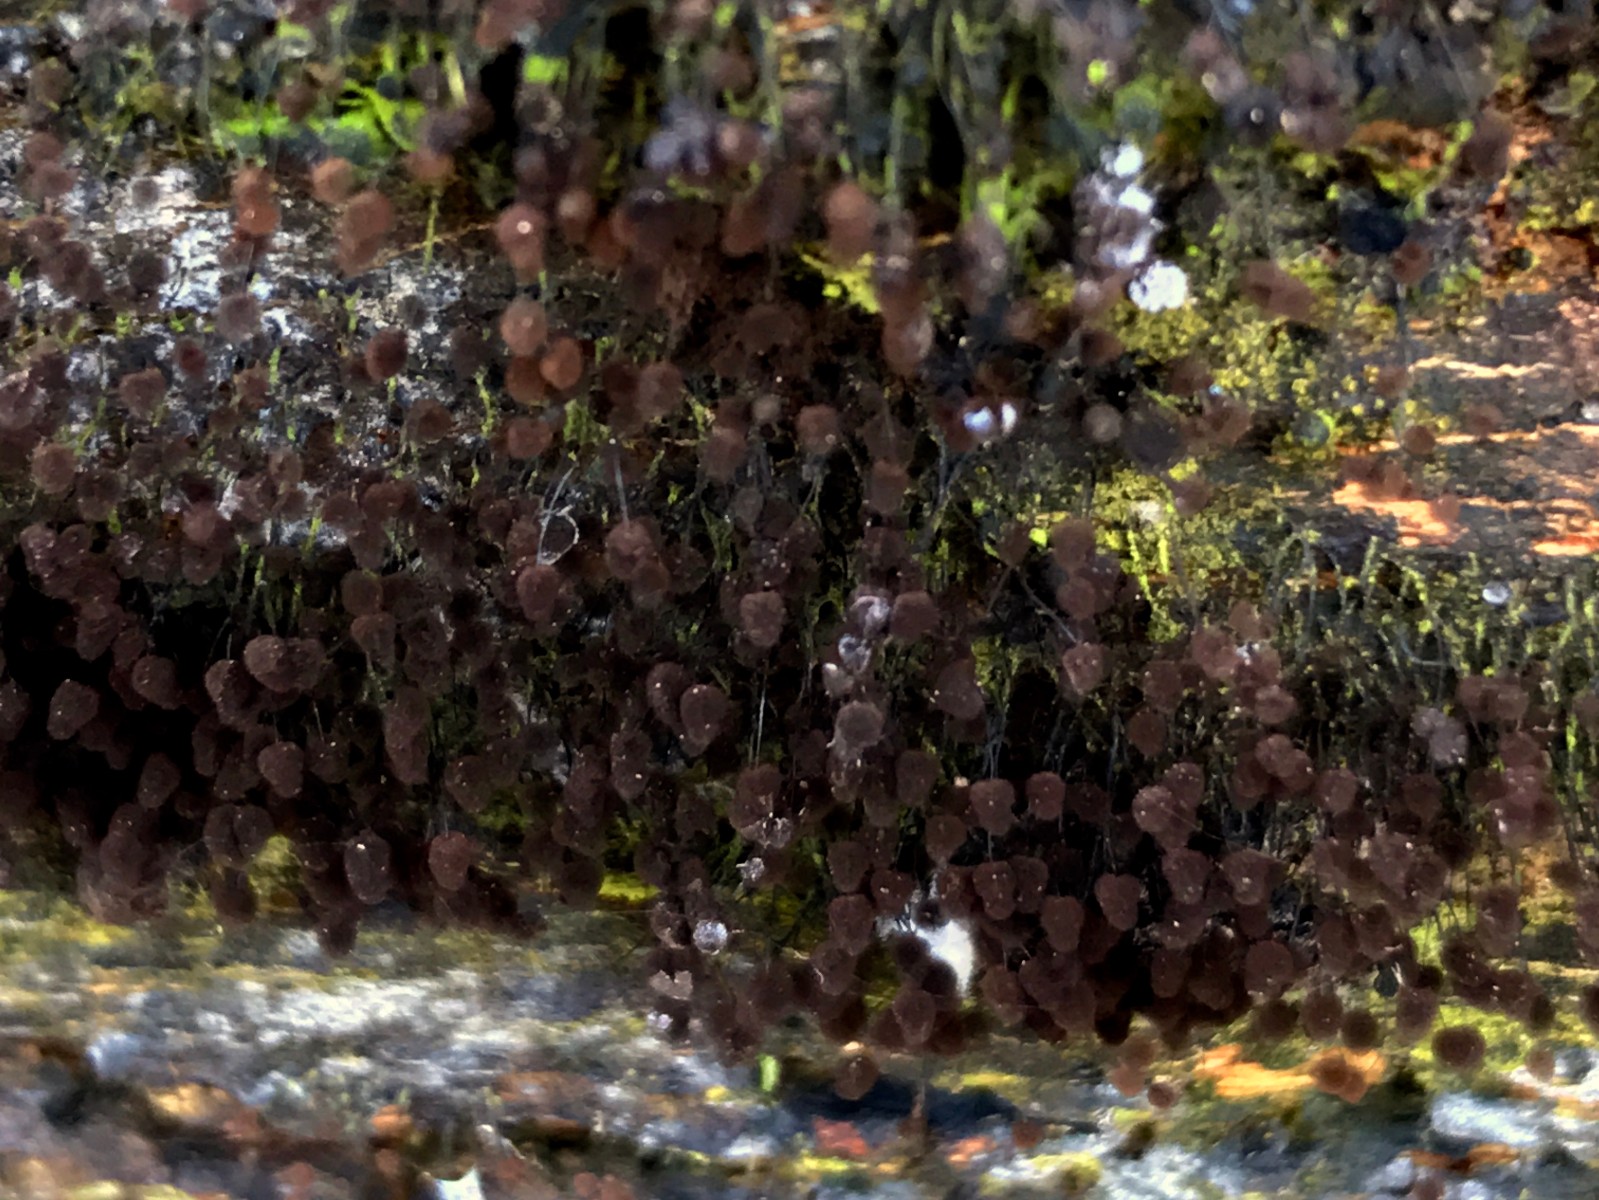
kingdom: Protozoa
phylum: Mycetozoa
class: Myxomycetes
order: Stemonitidales
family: Stemonitidaceae
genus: Comatricha
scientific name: Comatricha
